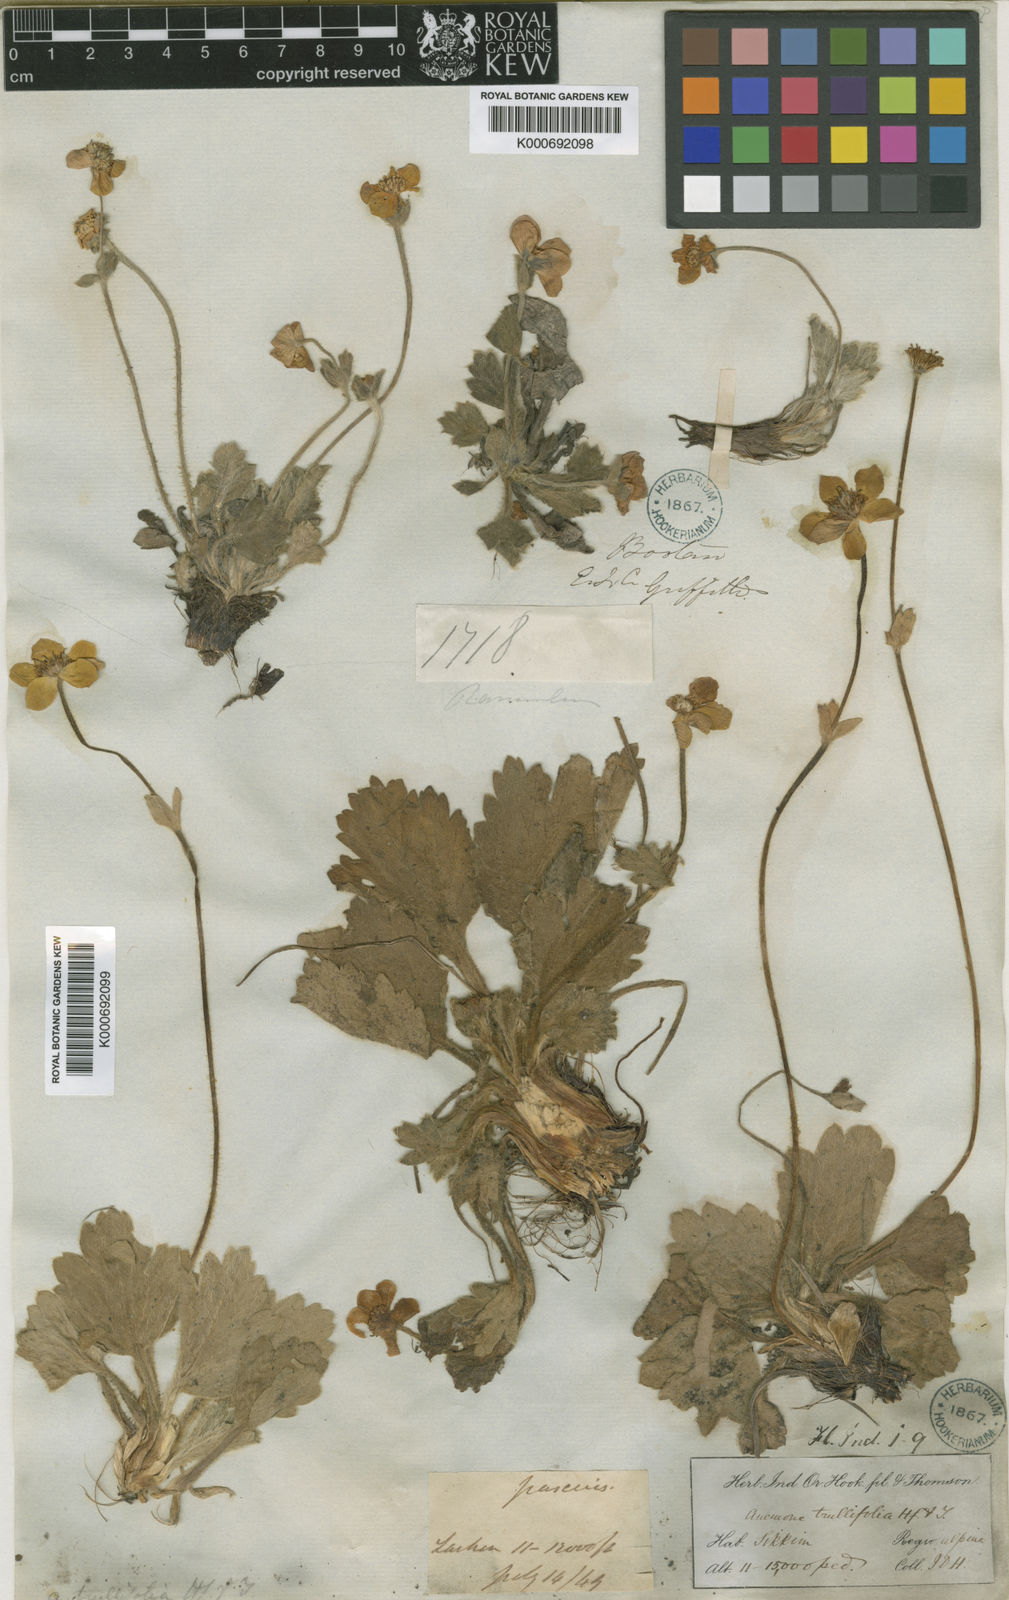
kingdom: Plantae
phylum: Tracheophyta
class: Magnoliopsida
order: Ranunculales
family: Ranunculaceae
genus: Anemonastrum
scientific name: Anemonastrum trullifolium
